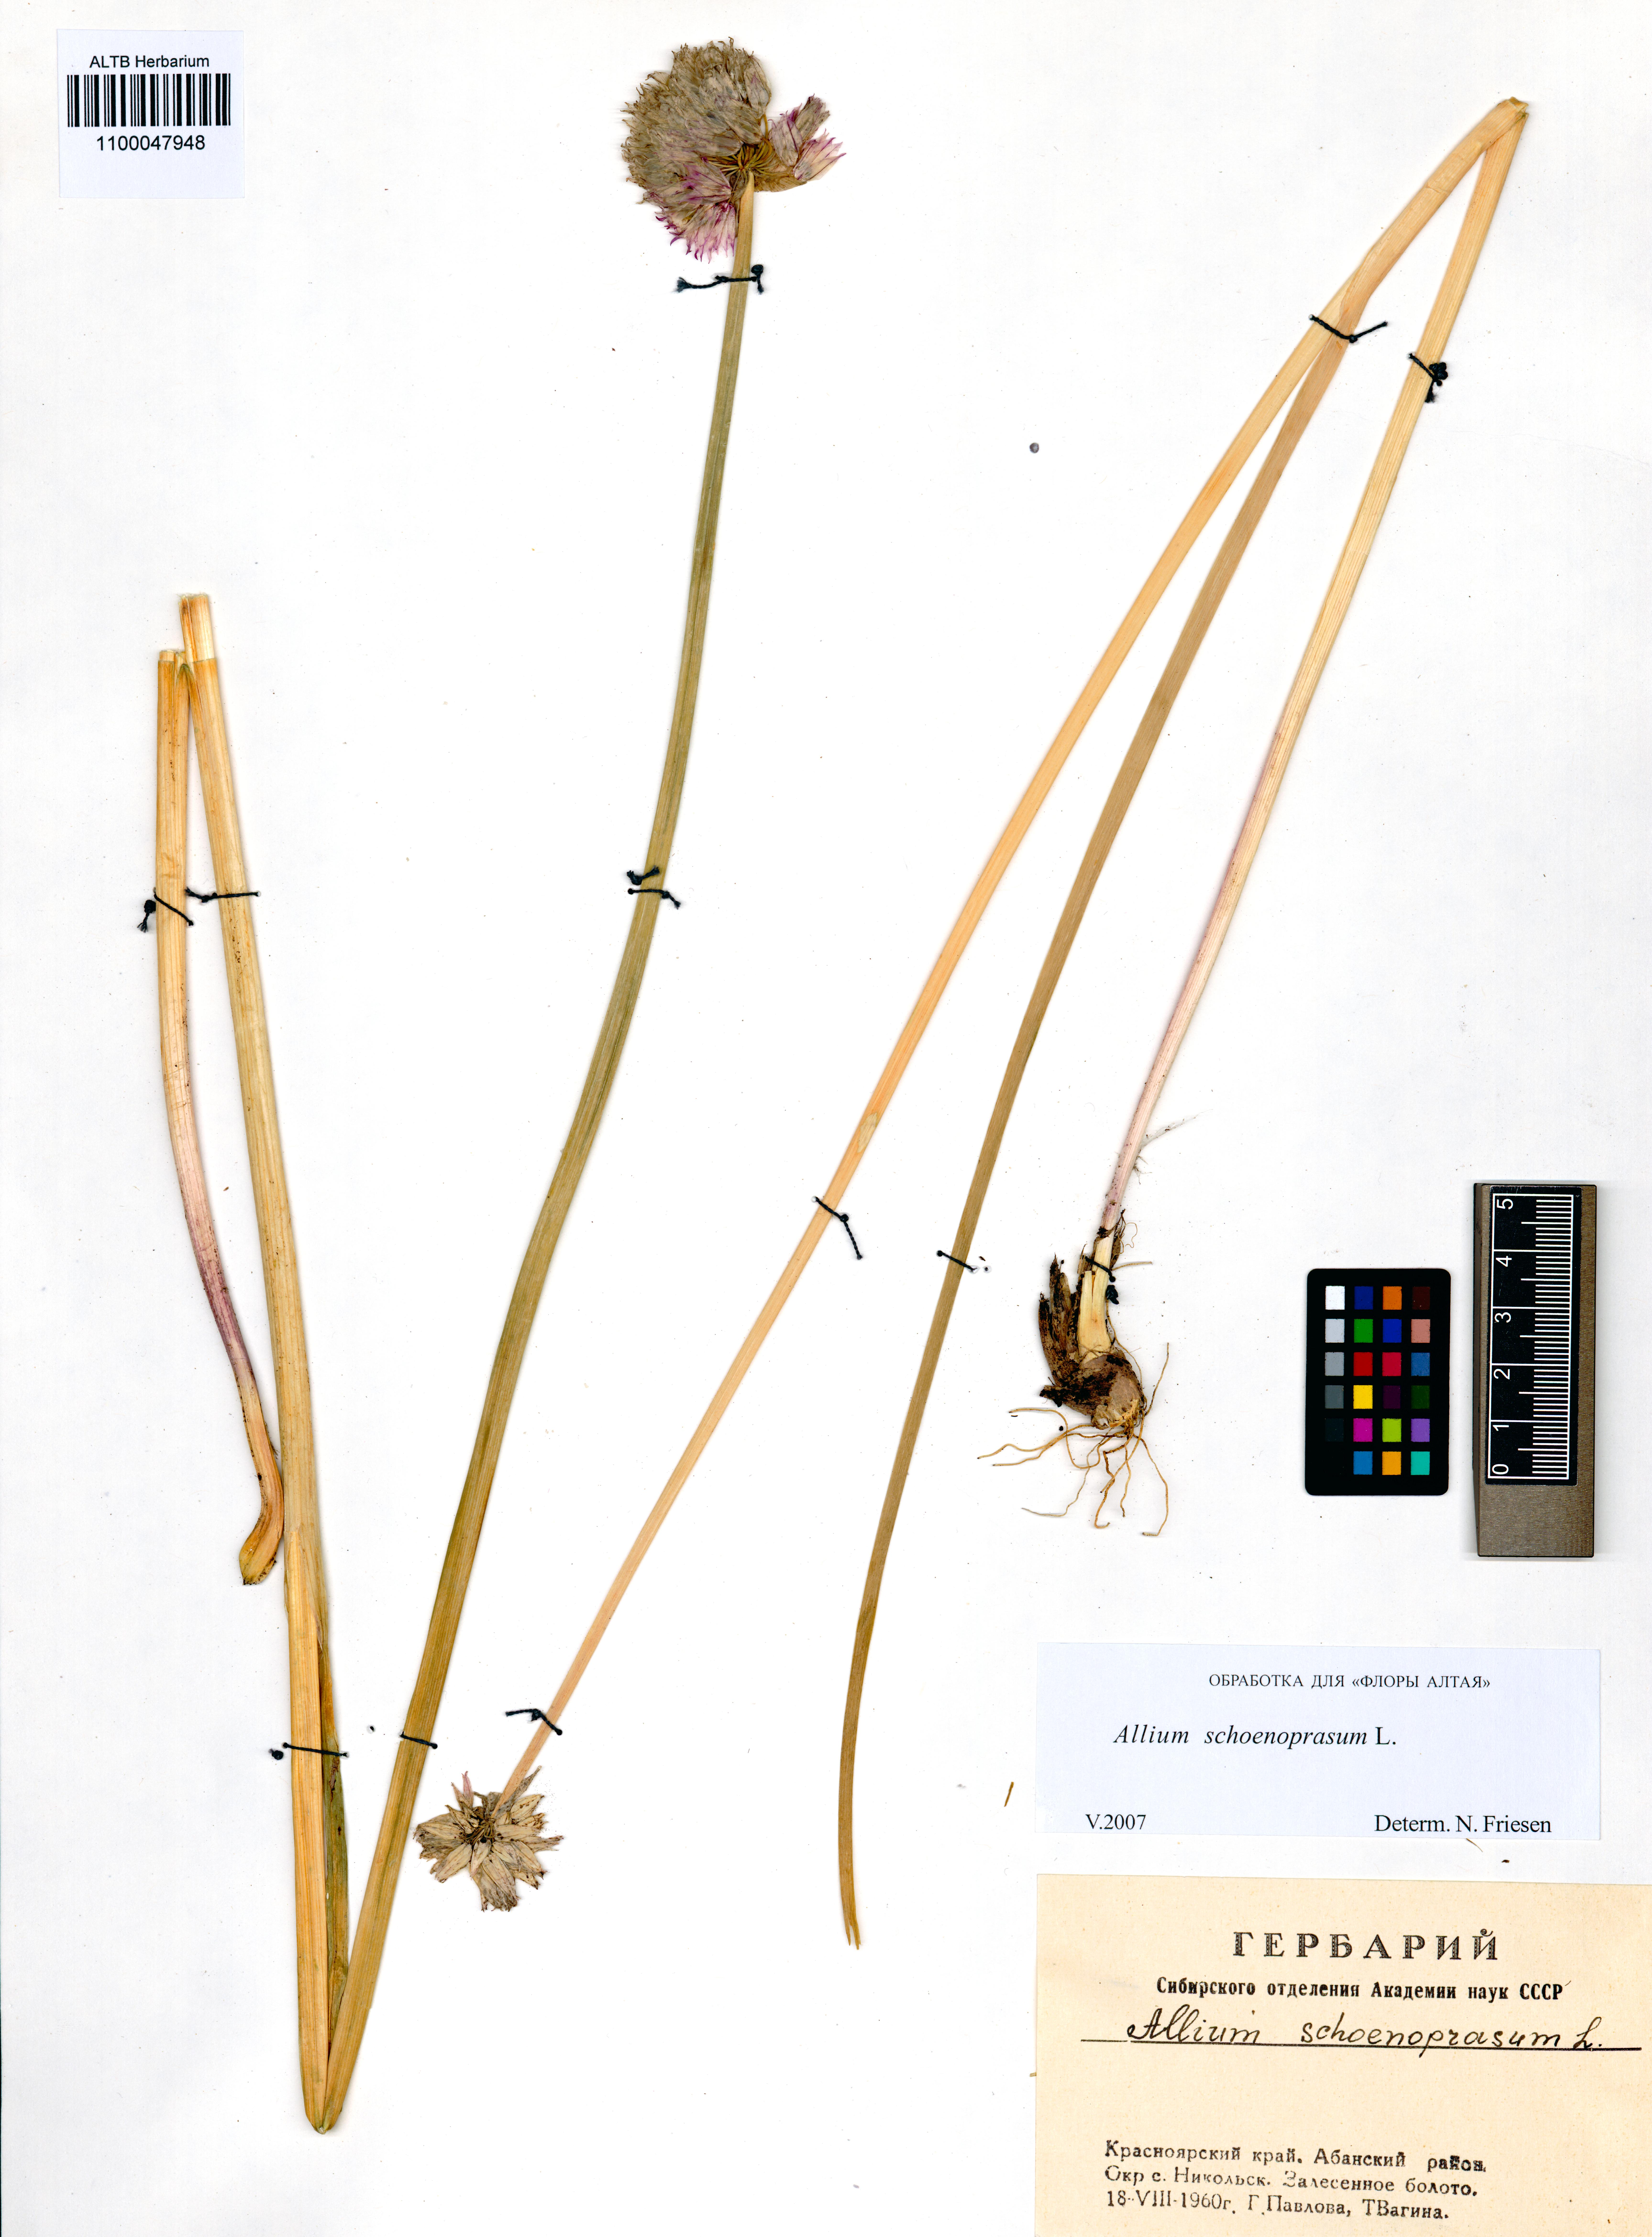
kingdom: Plantae
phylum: Tracheophyta
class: Liliopsida
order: Asparagales
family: Amaryllidaceae
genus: Allium
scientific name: Allium schoenoprasum
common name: Chives
